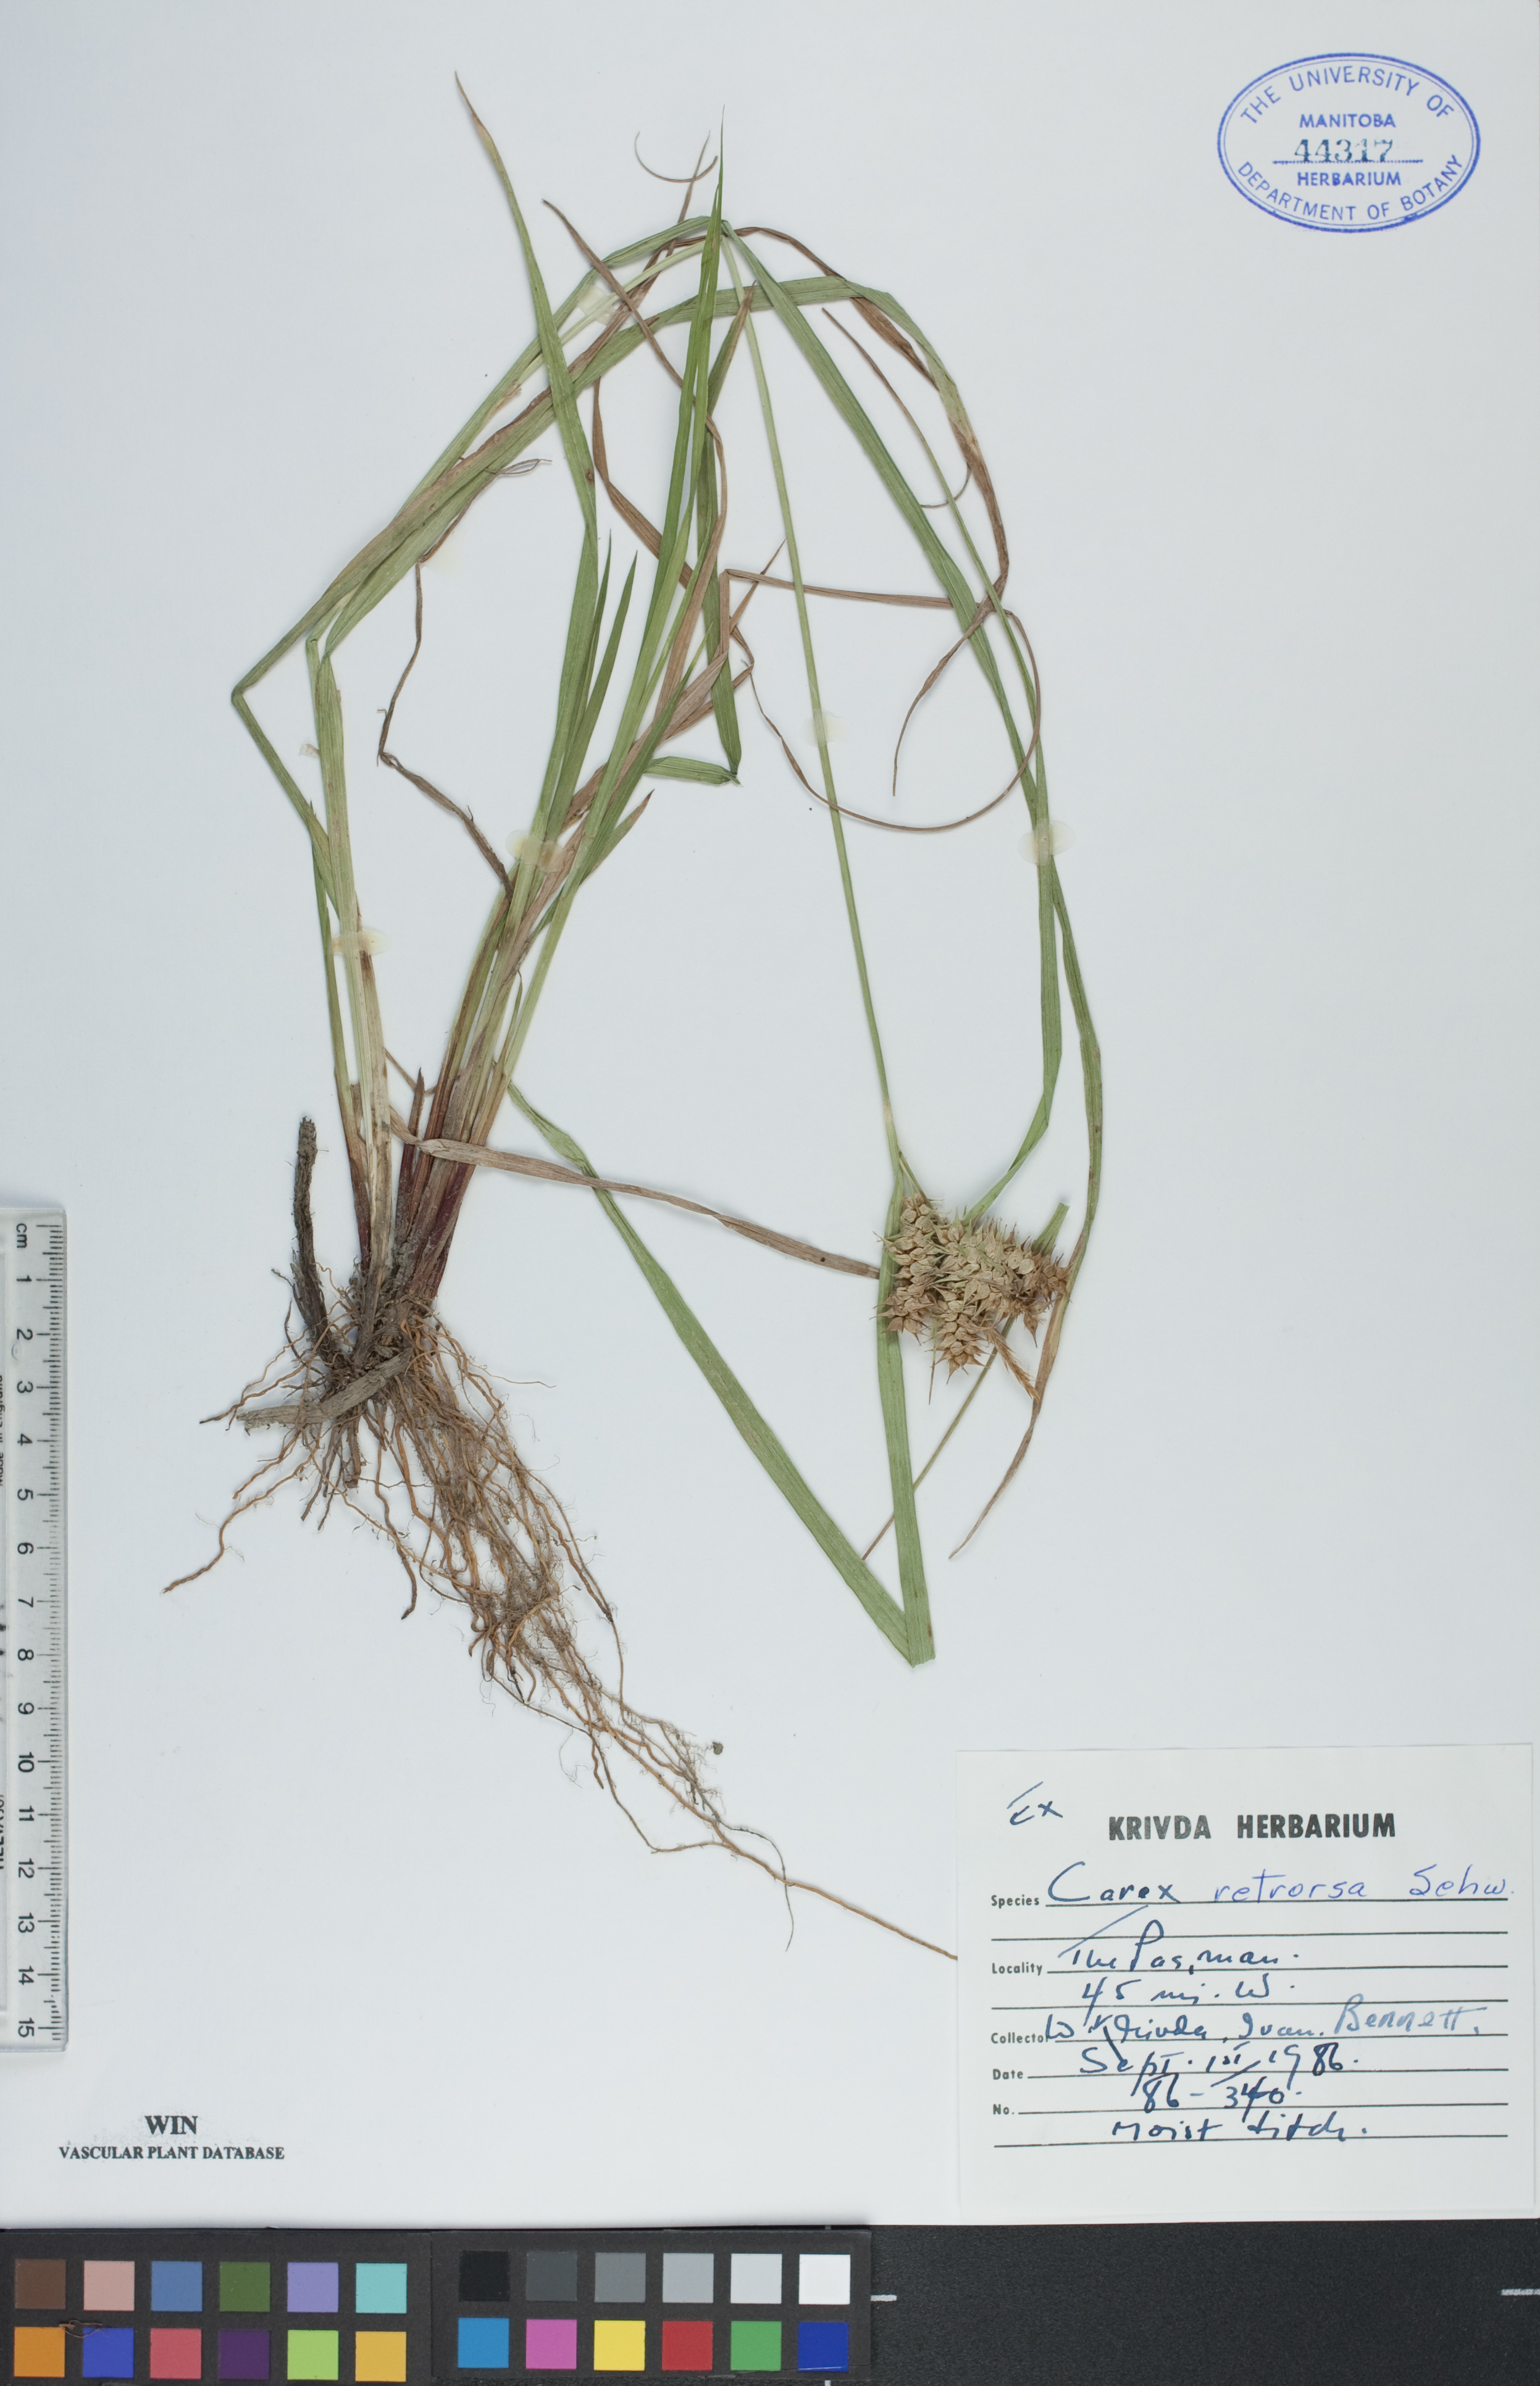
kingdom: Plantae
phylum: Tracheophyta
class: Liliopsida
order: Poales
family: Cyperaceae
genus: Carex
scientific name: Carex retrorsa
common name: Knot-sheath sedge
